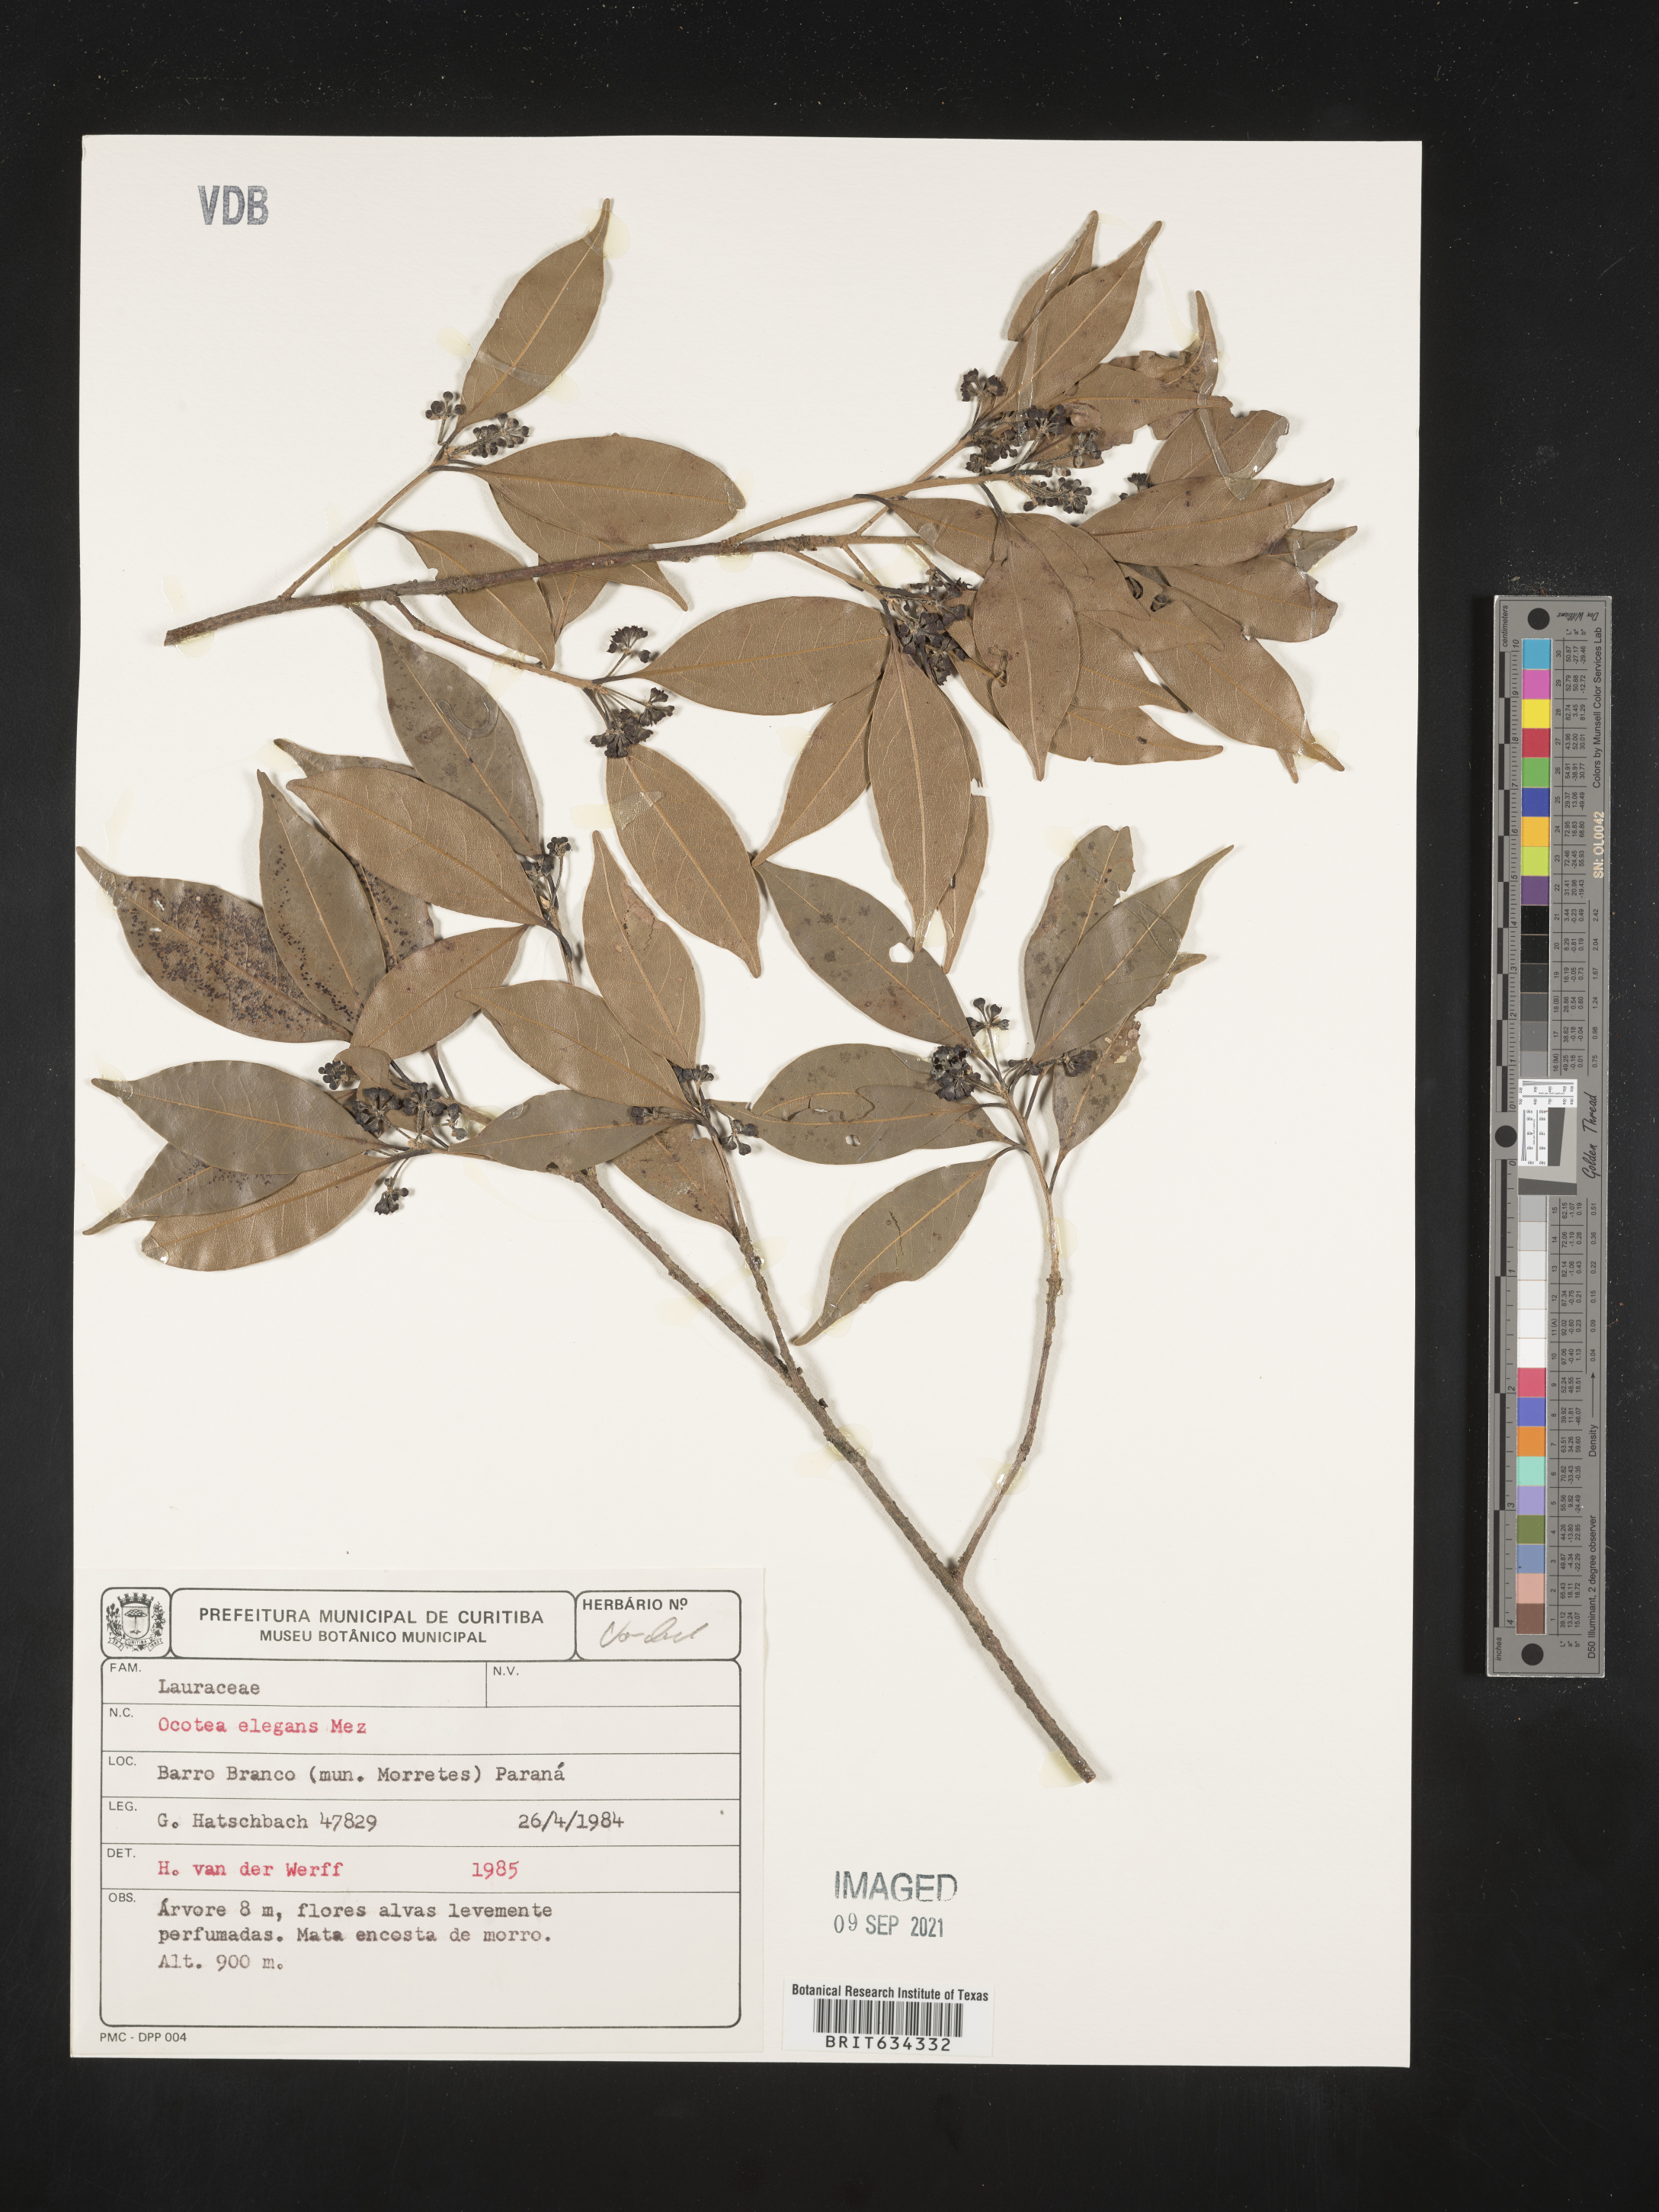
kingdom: Plantae
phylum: Tracheophyta
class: Magnoliopsida
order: Laurales
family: Lauraceae
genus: Ocotea
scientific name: Ocotea
